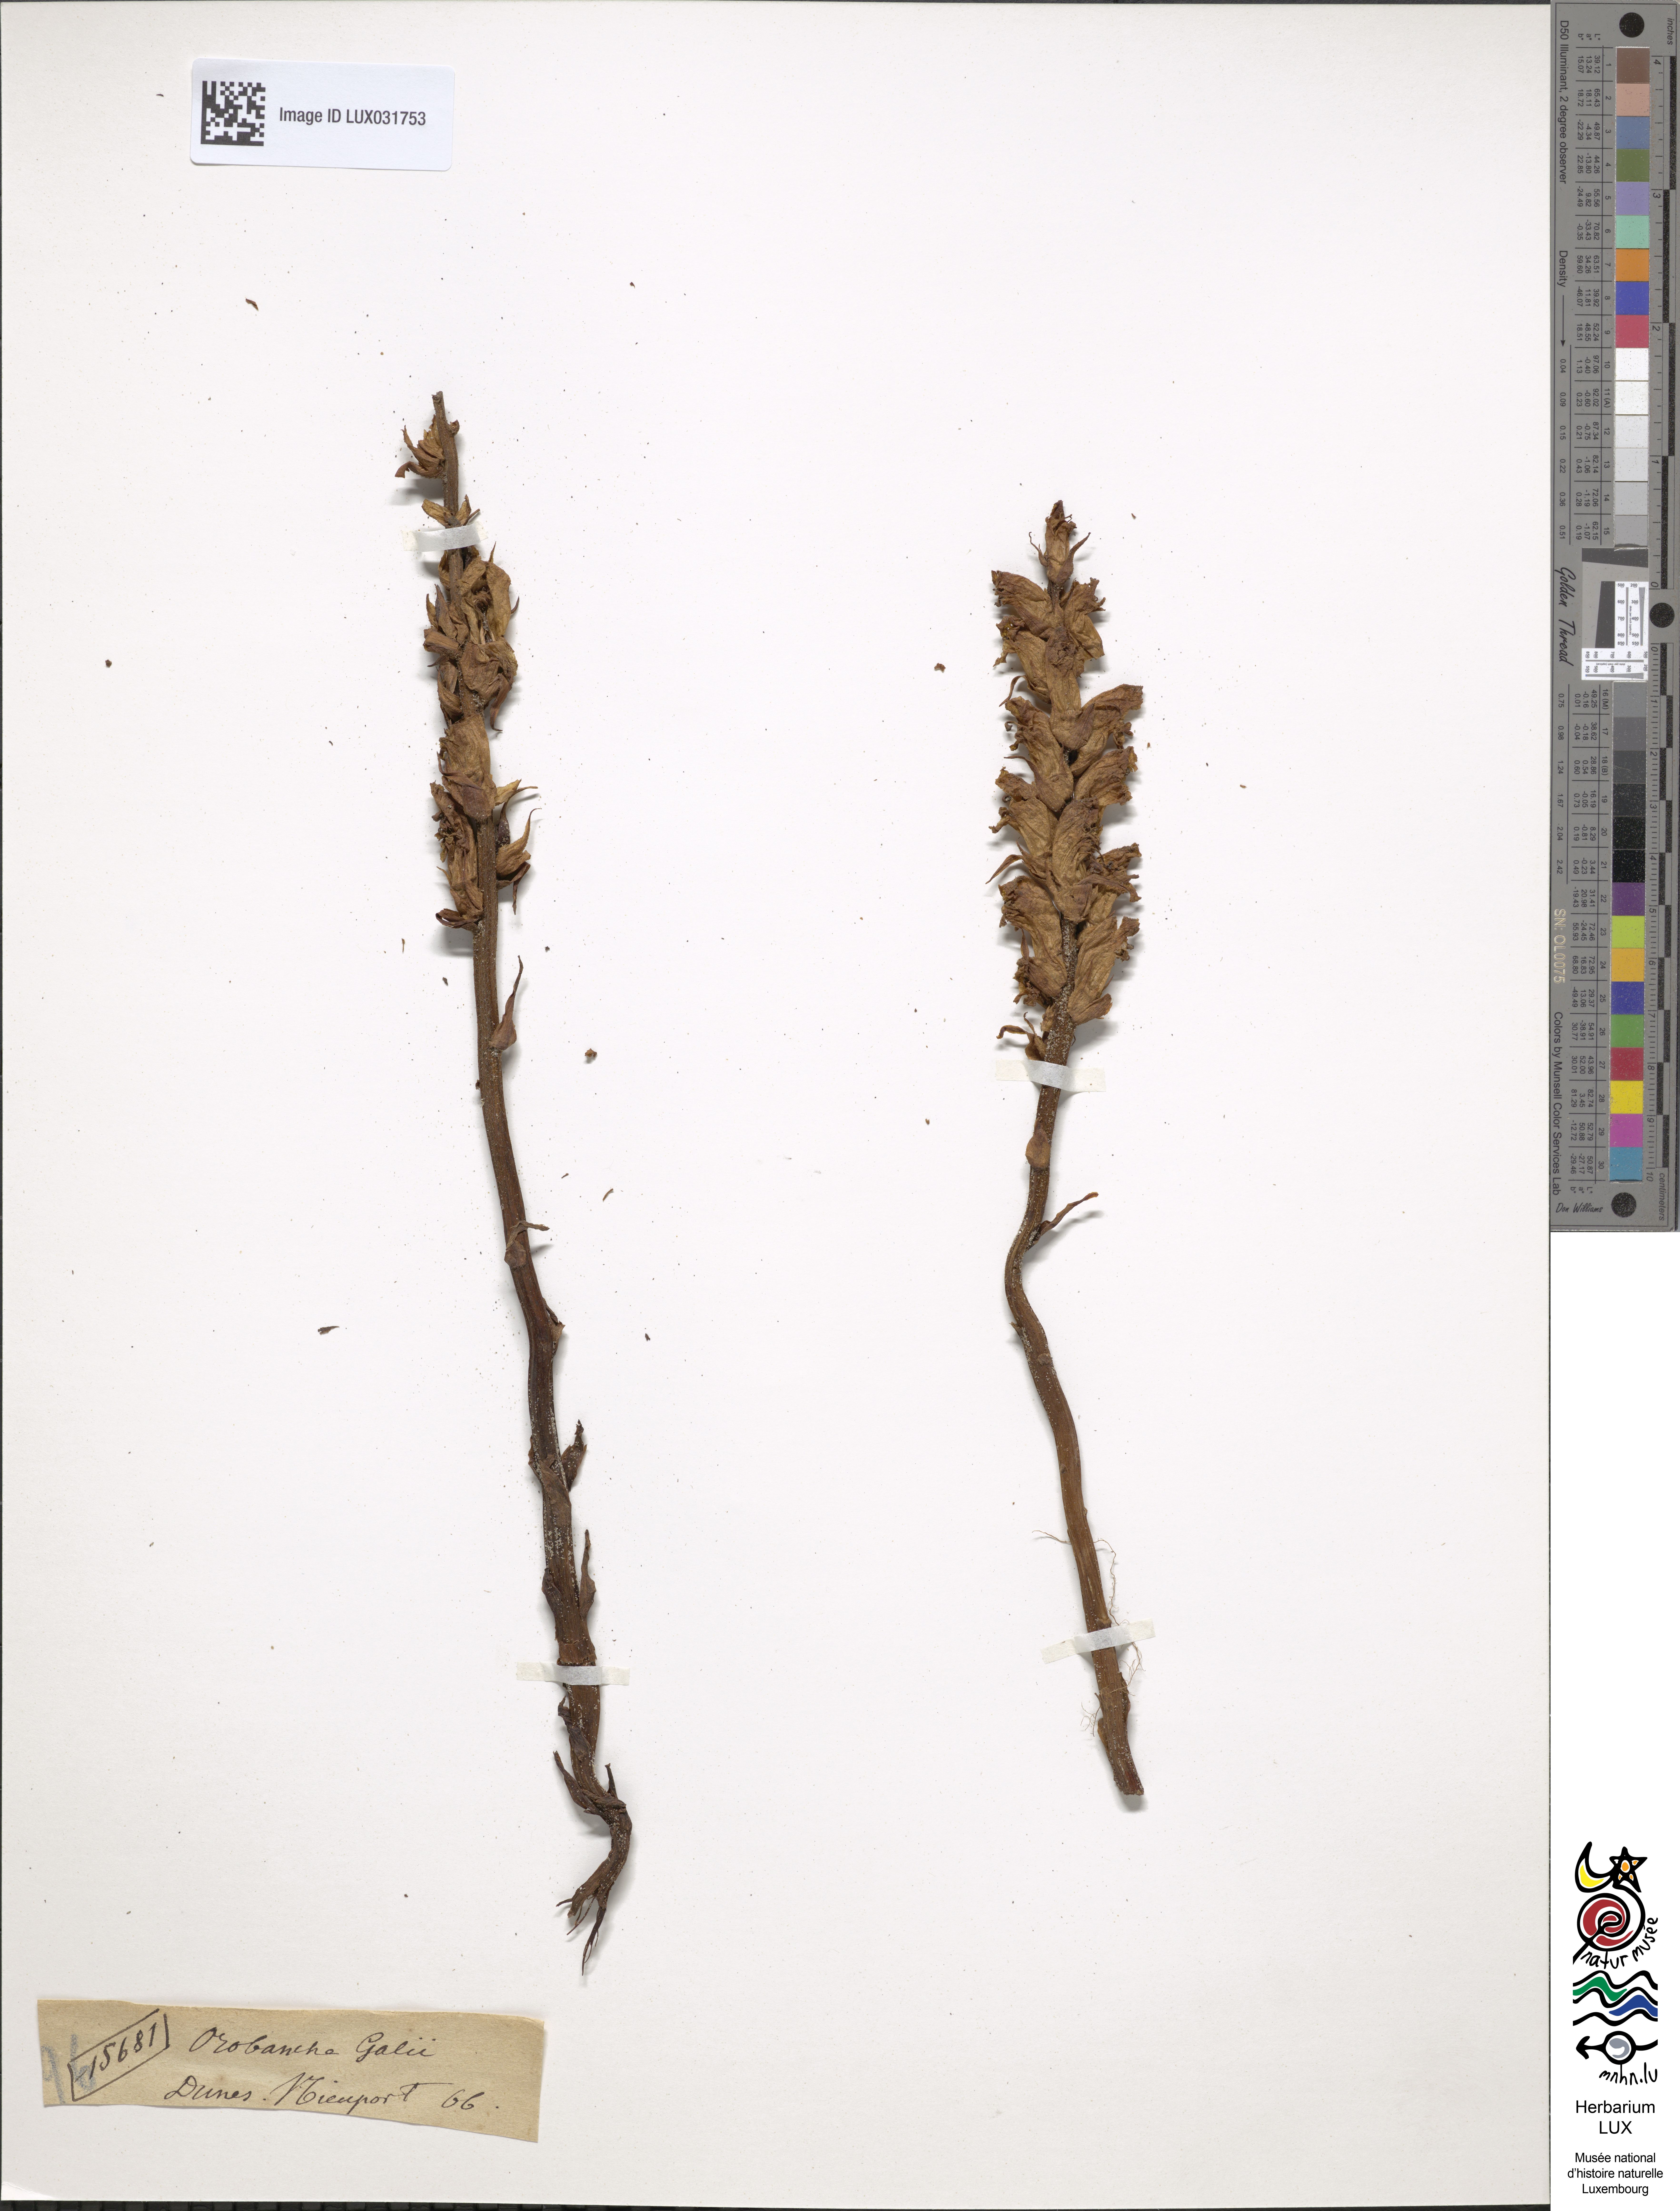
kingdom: Plantae
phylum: Tracheophyta
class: Magnoliopsida
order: Lamiales
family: Orobanchaceae
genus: Orobanche
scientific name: Orobanche caryophyllacea
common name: Bedstraw broomrape
